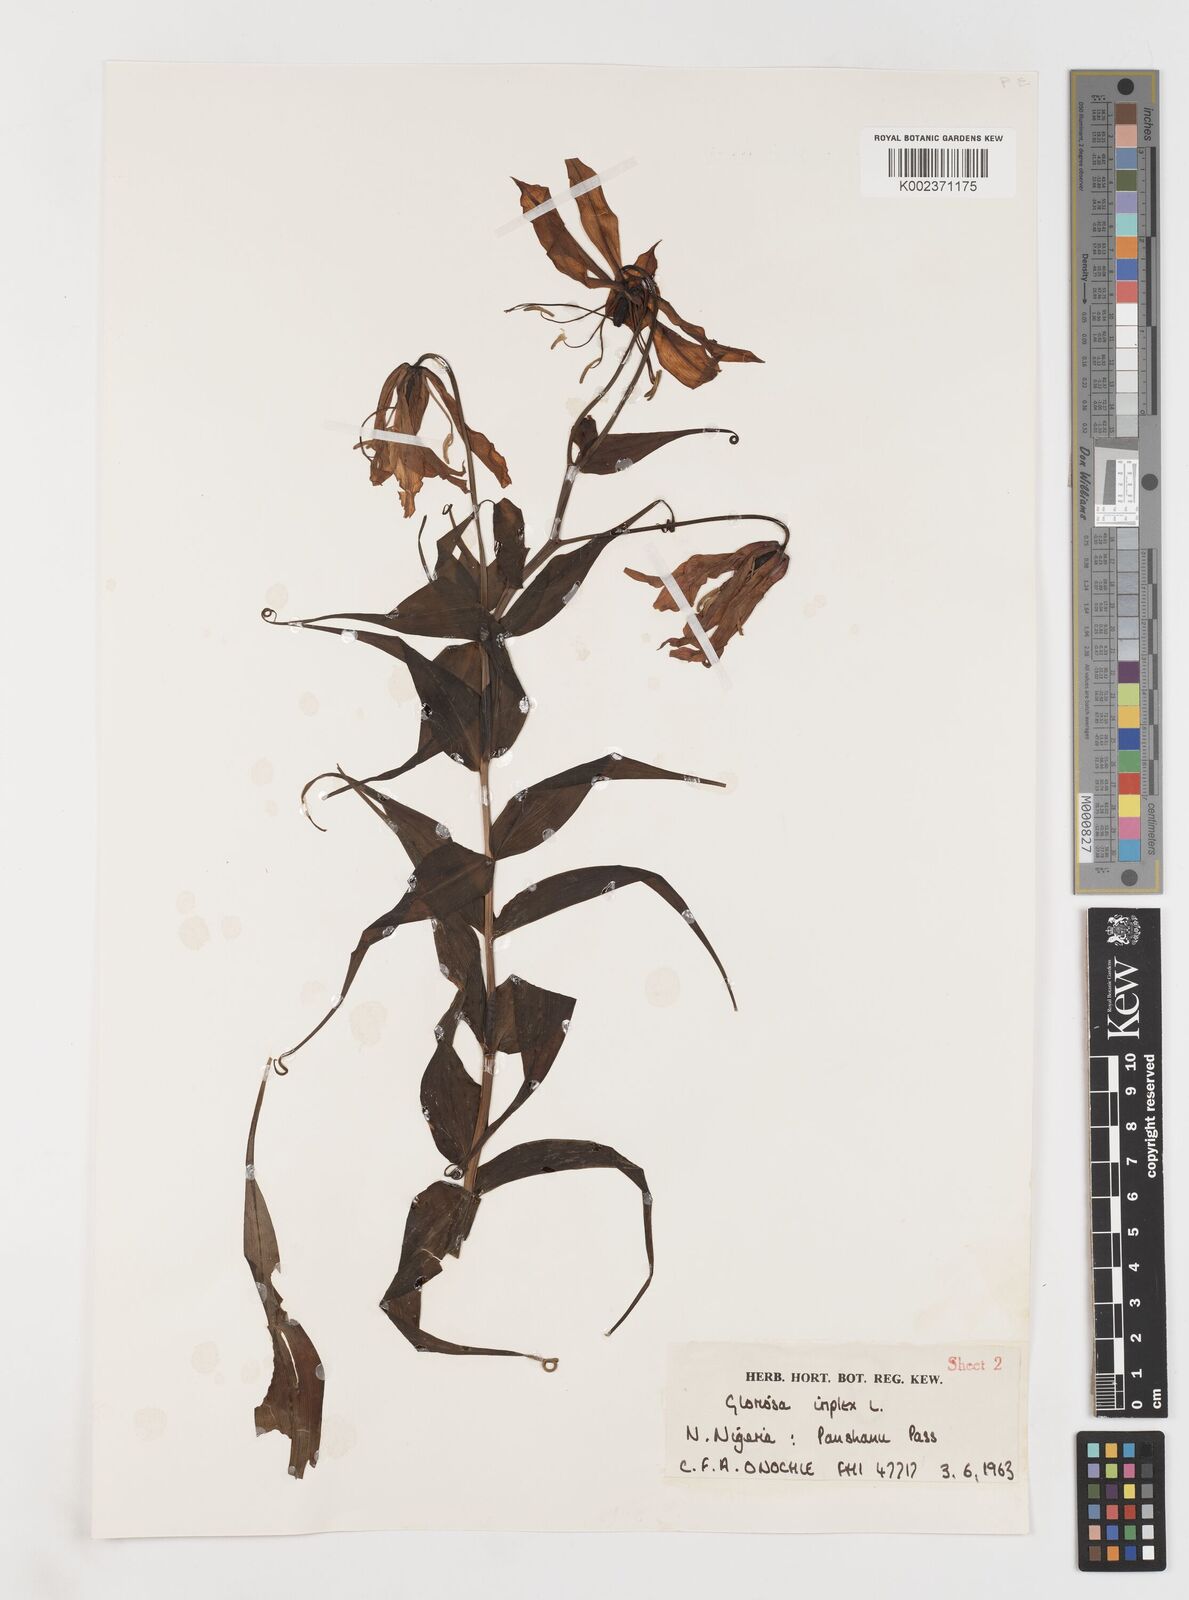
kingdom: Plantae
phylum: Tracheophyta
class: Liliopsida
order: Liliales
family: Colchicaceae
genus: Gloriosa
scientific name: Gloriosa simplex
